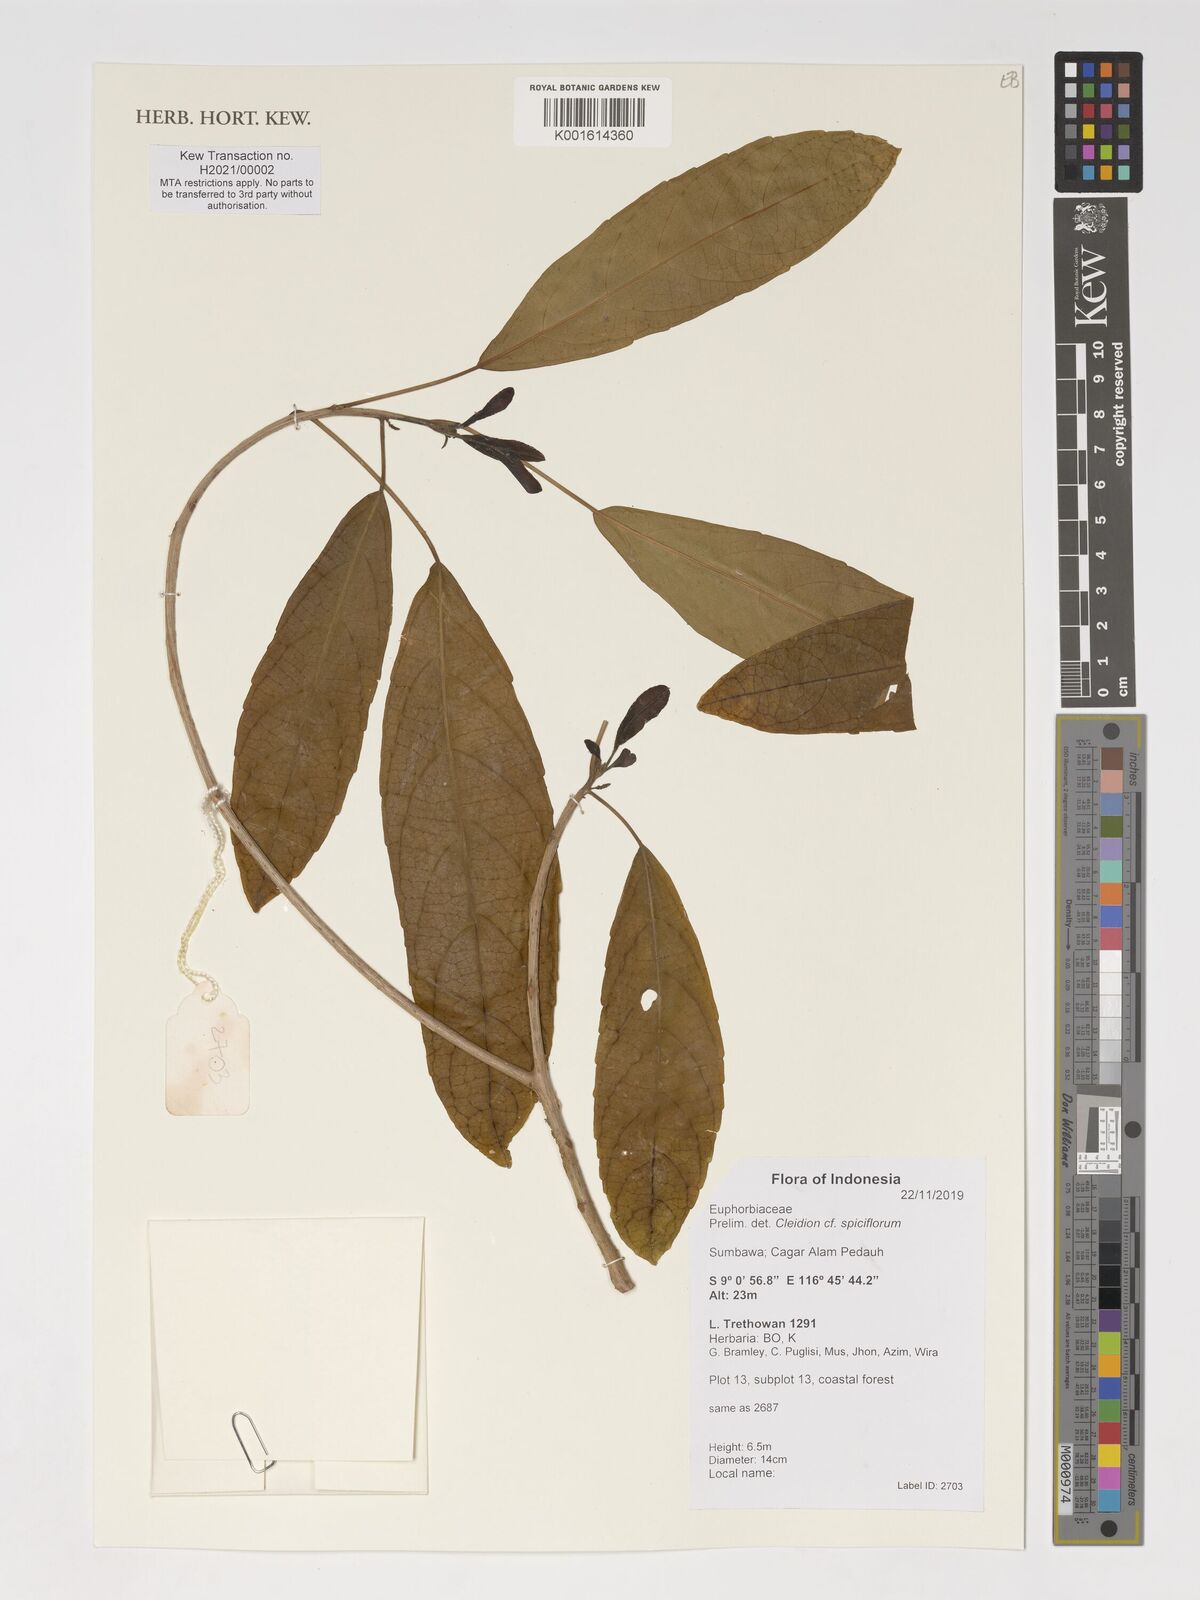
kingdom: Plantae
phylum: Tracheophyta
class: Magnoliopsida
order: Malpighiales
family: Euphorbiaceae
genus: Acalypha
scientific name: Acalypha spiciflora
